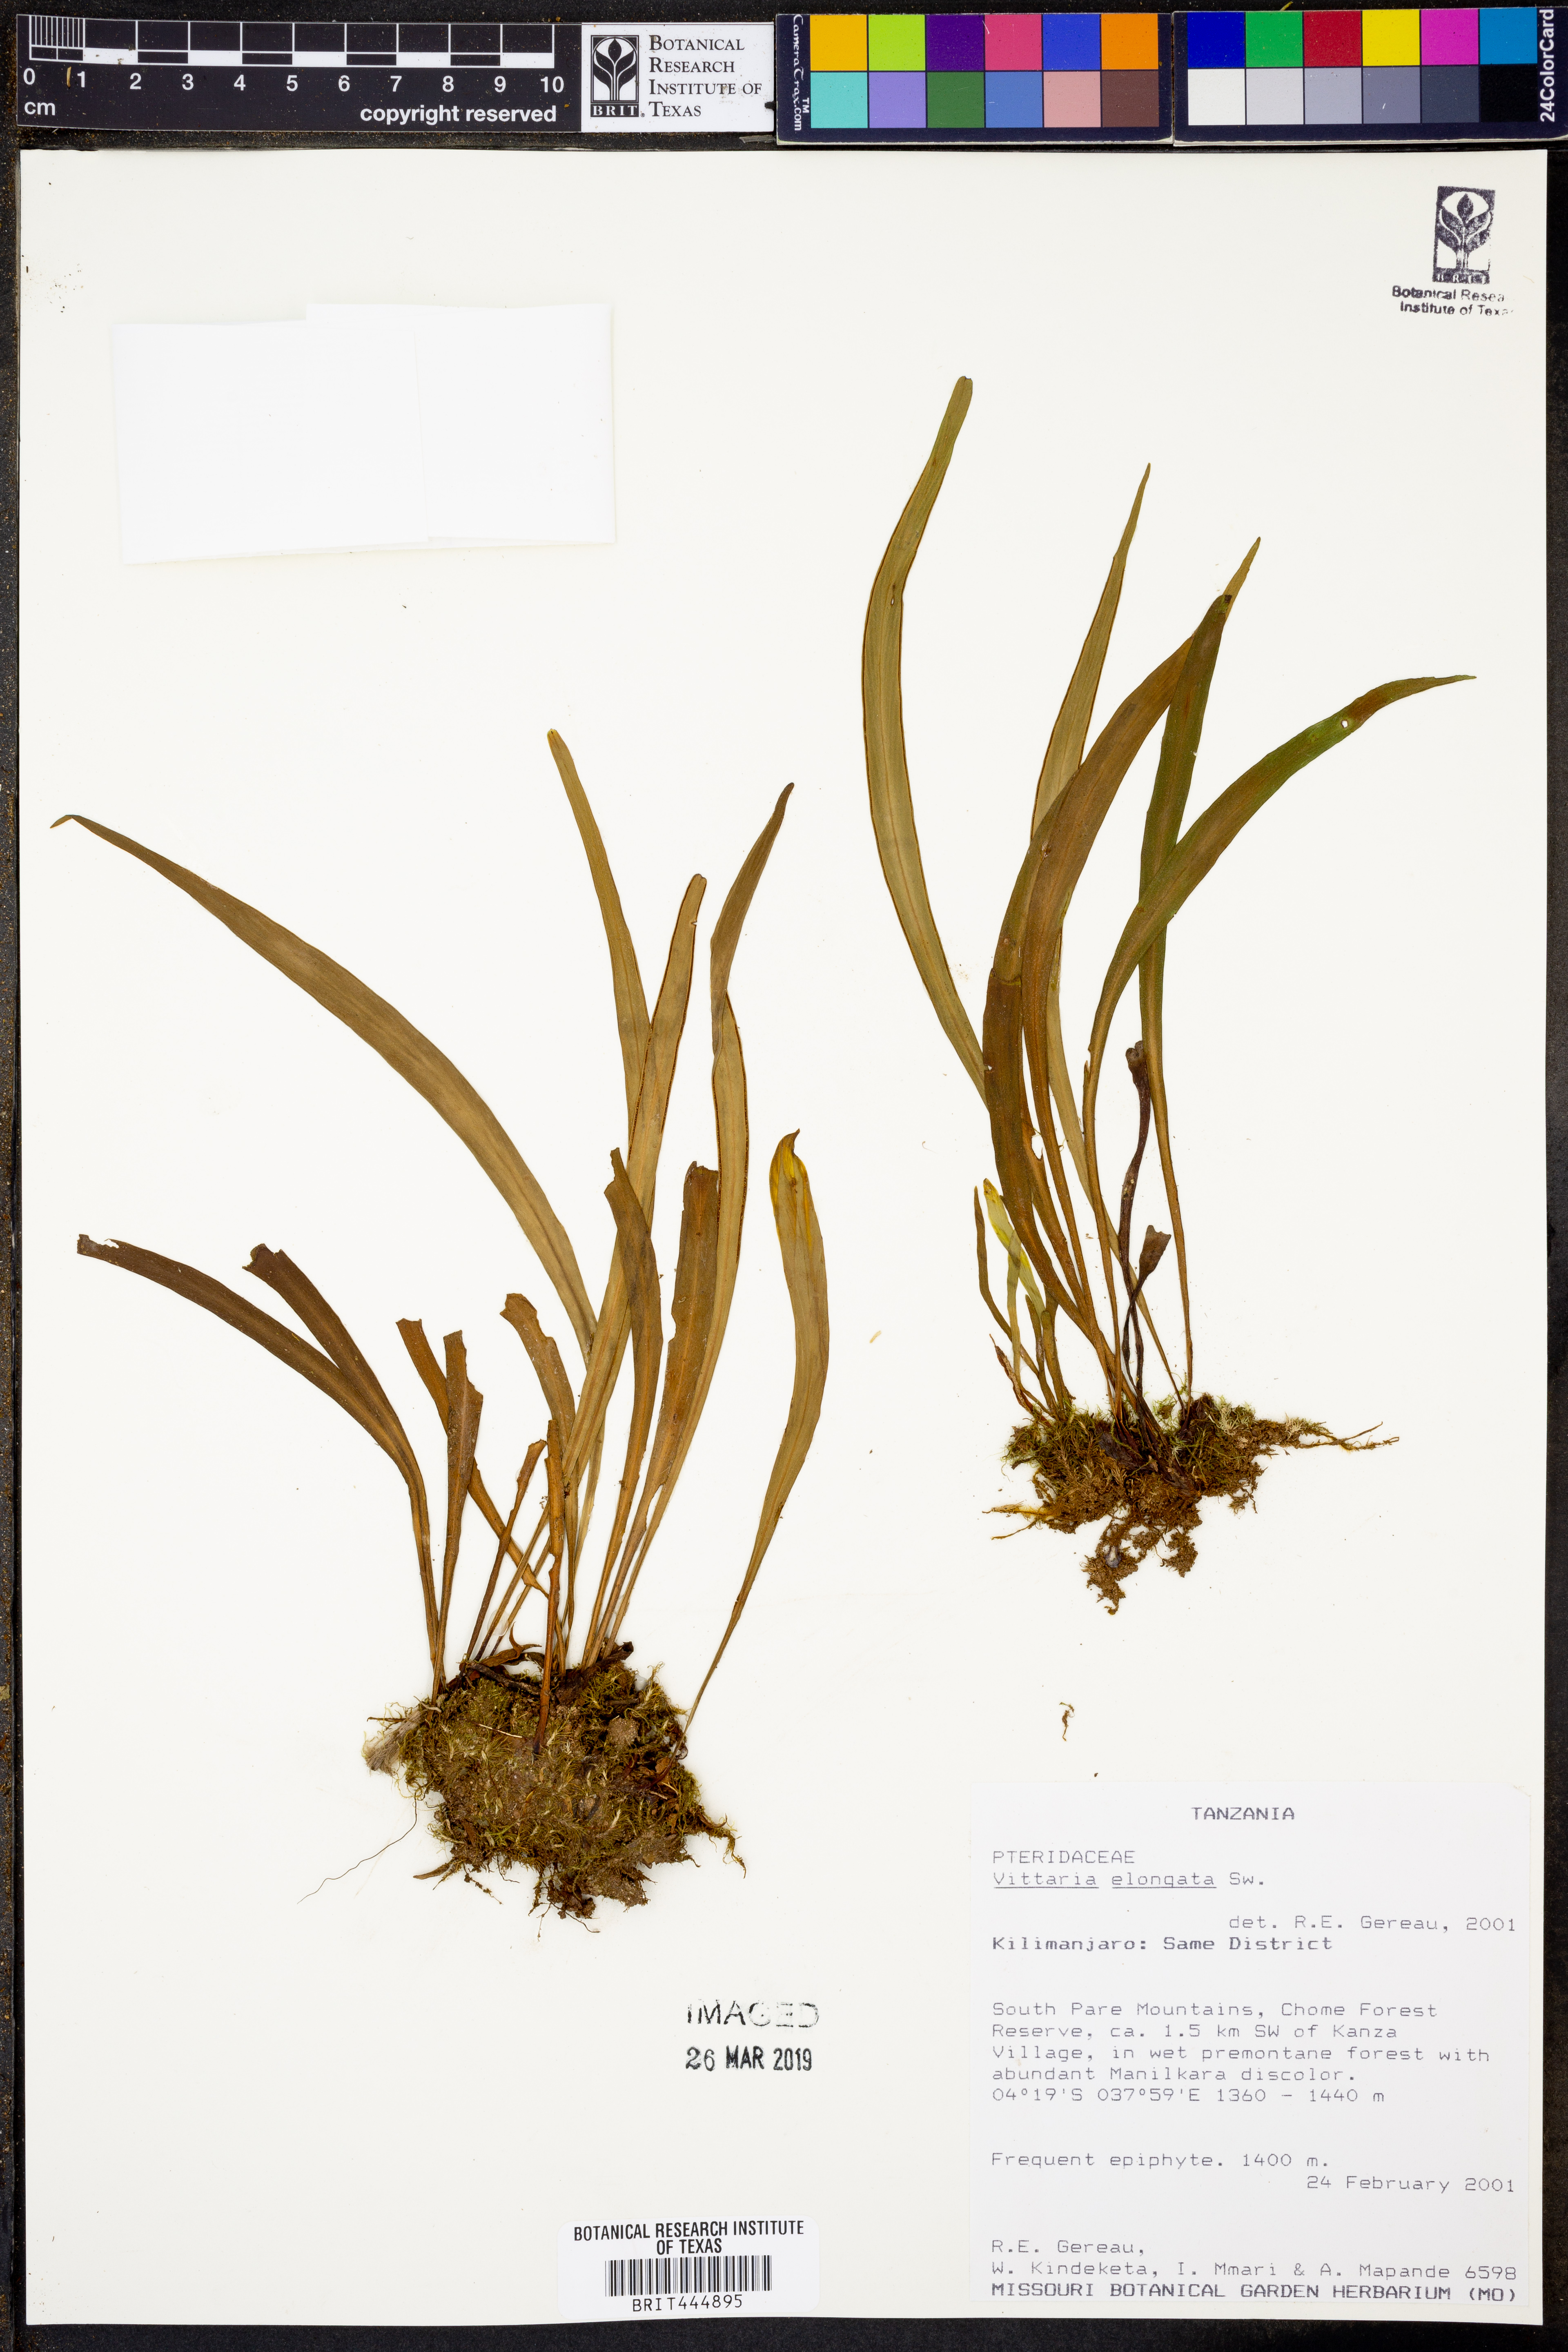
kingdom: Plantae
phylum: Tracheophyta
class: Polypodiopsida
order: Polypodiales
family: Pteridaceae
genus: Haplopteris
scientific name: Haplopteris elongata
